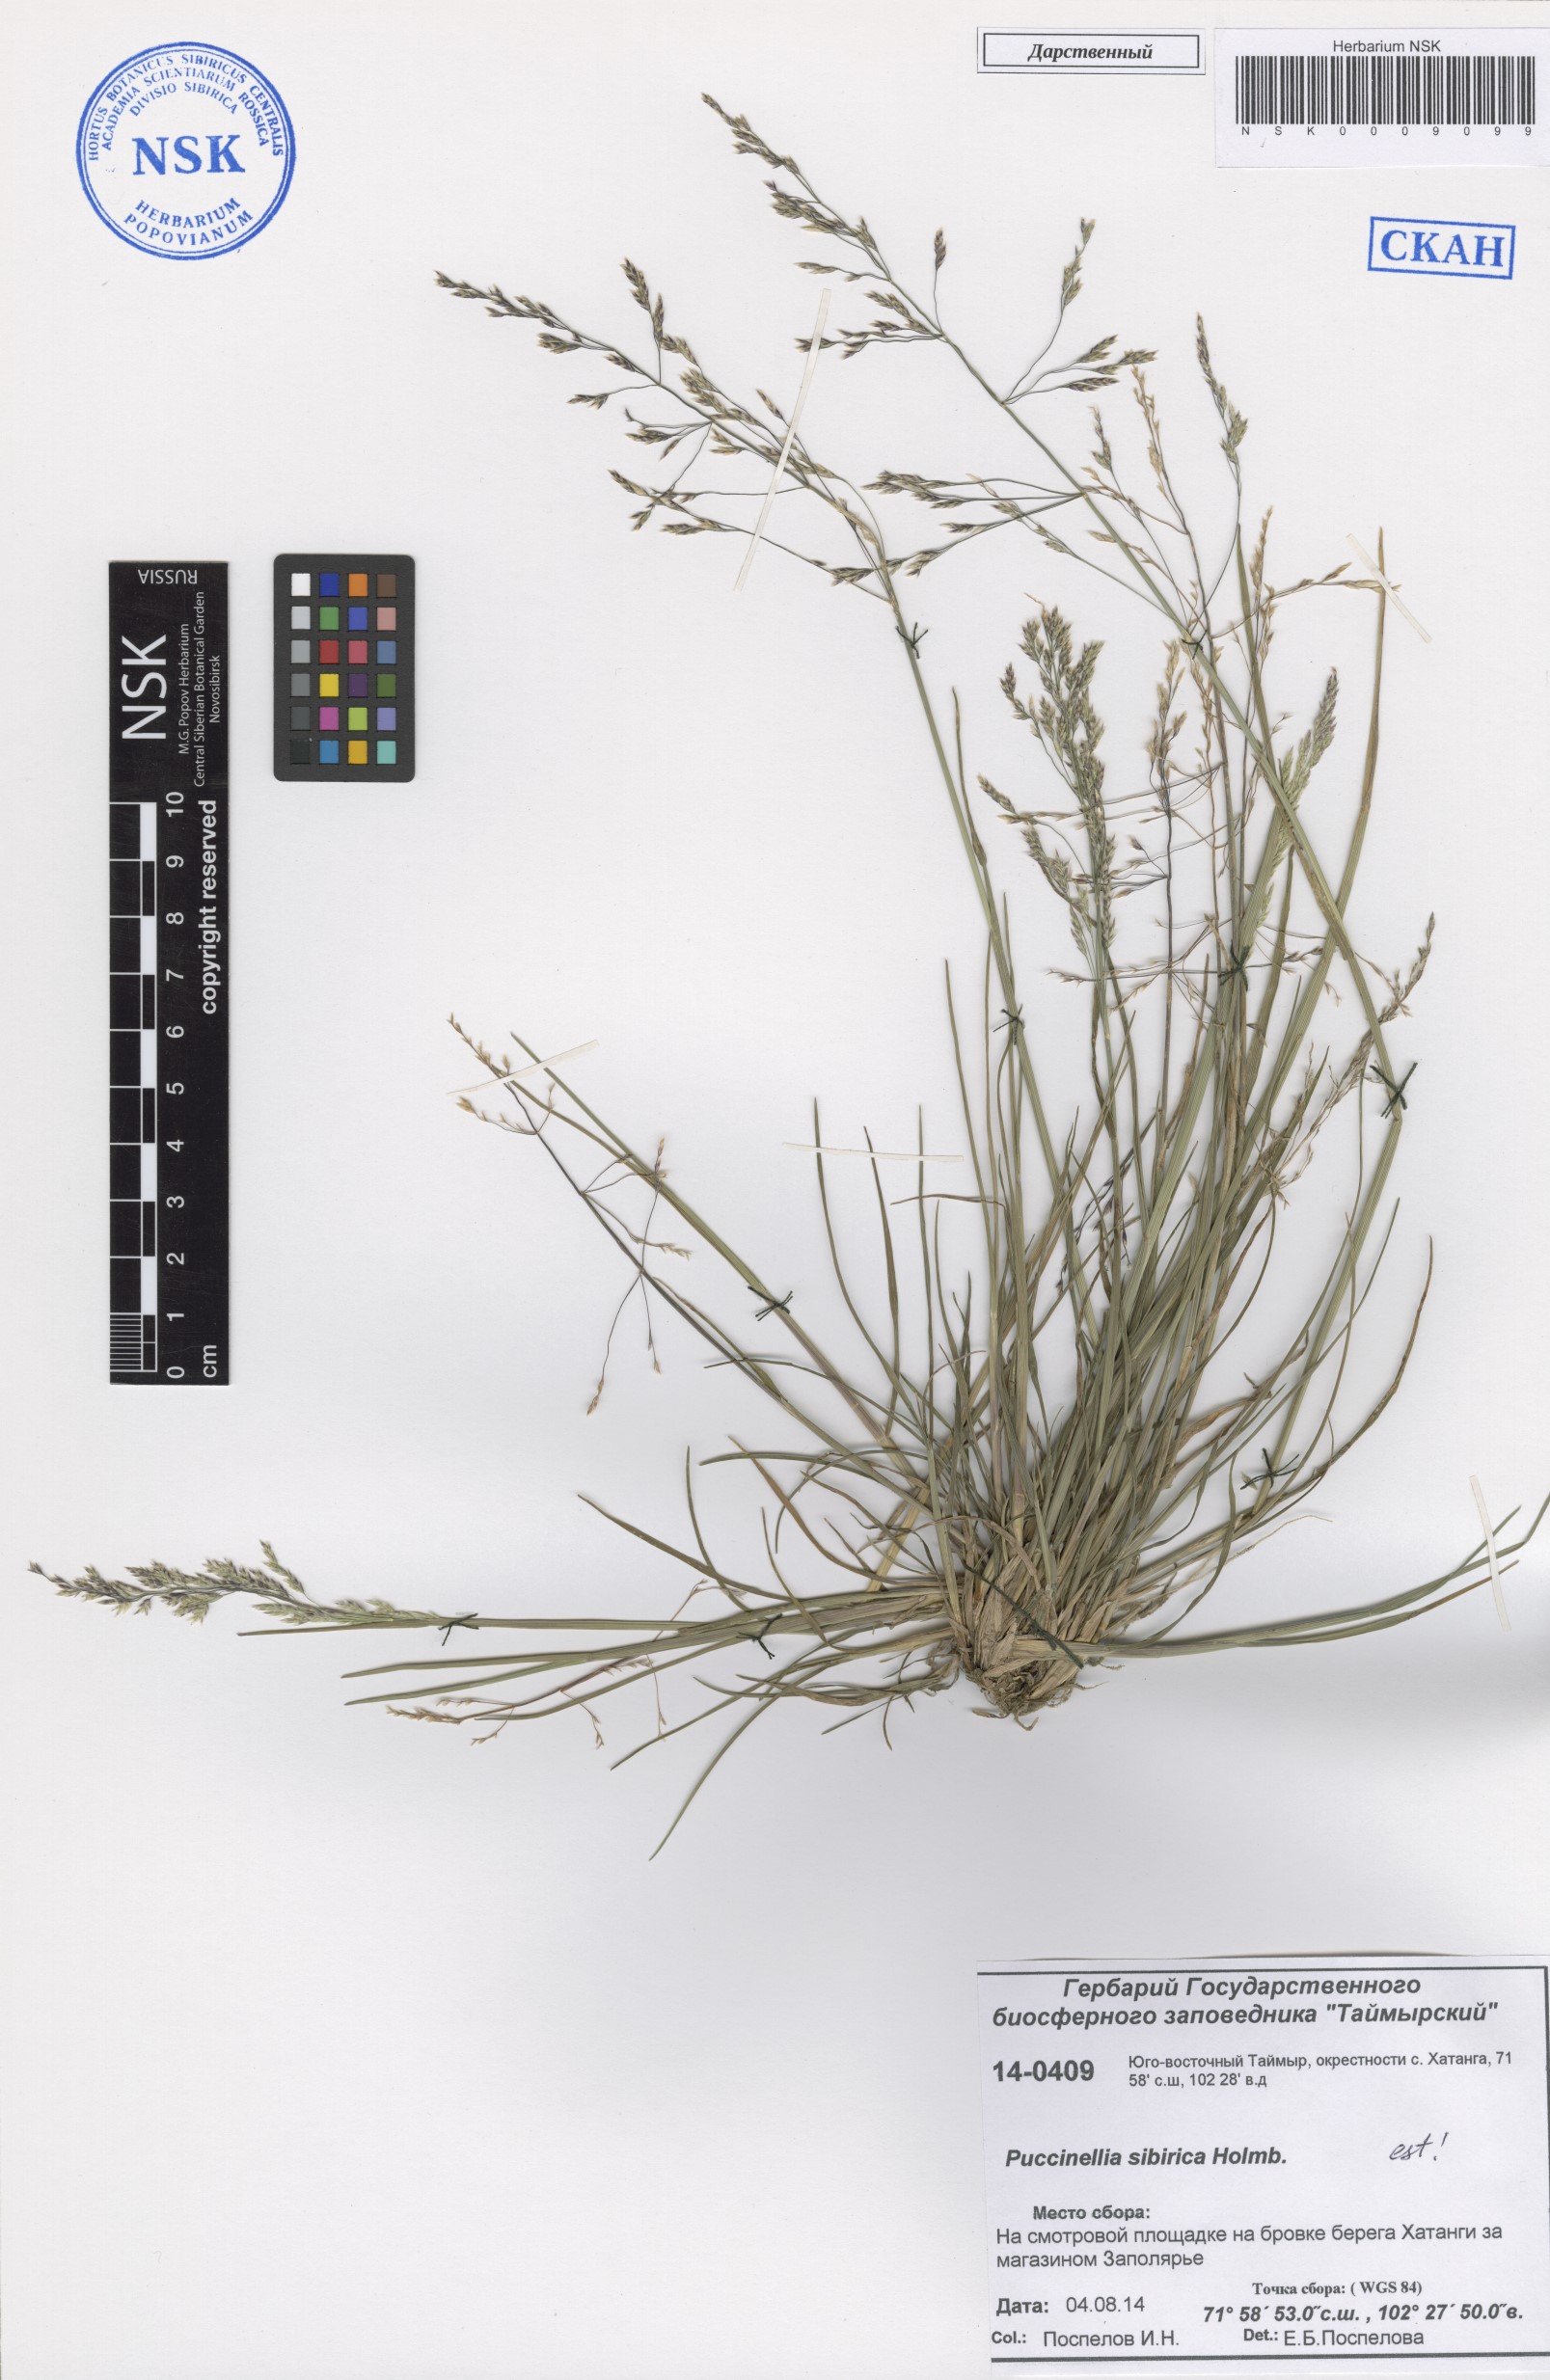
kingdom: Plantae
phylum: Tracheophyta
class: Liliopsida
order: Poales
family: Poaceae
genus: Puccinellia
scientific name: Puccinellia sibirica
